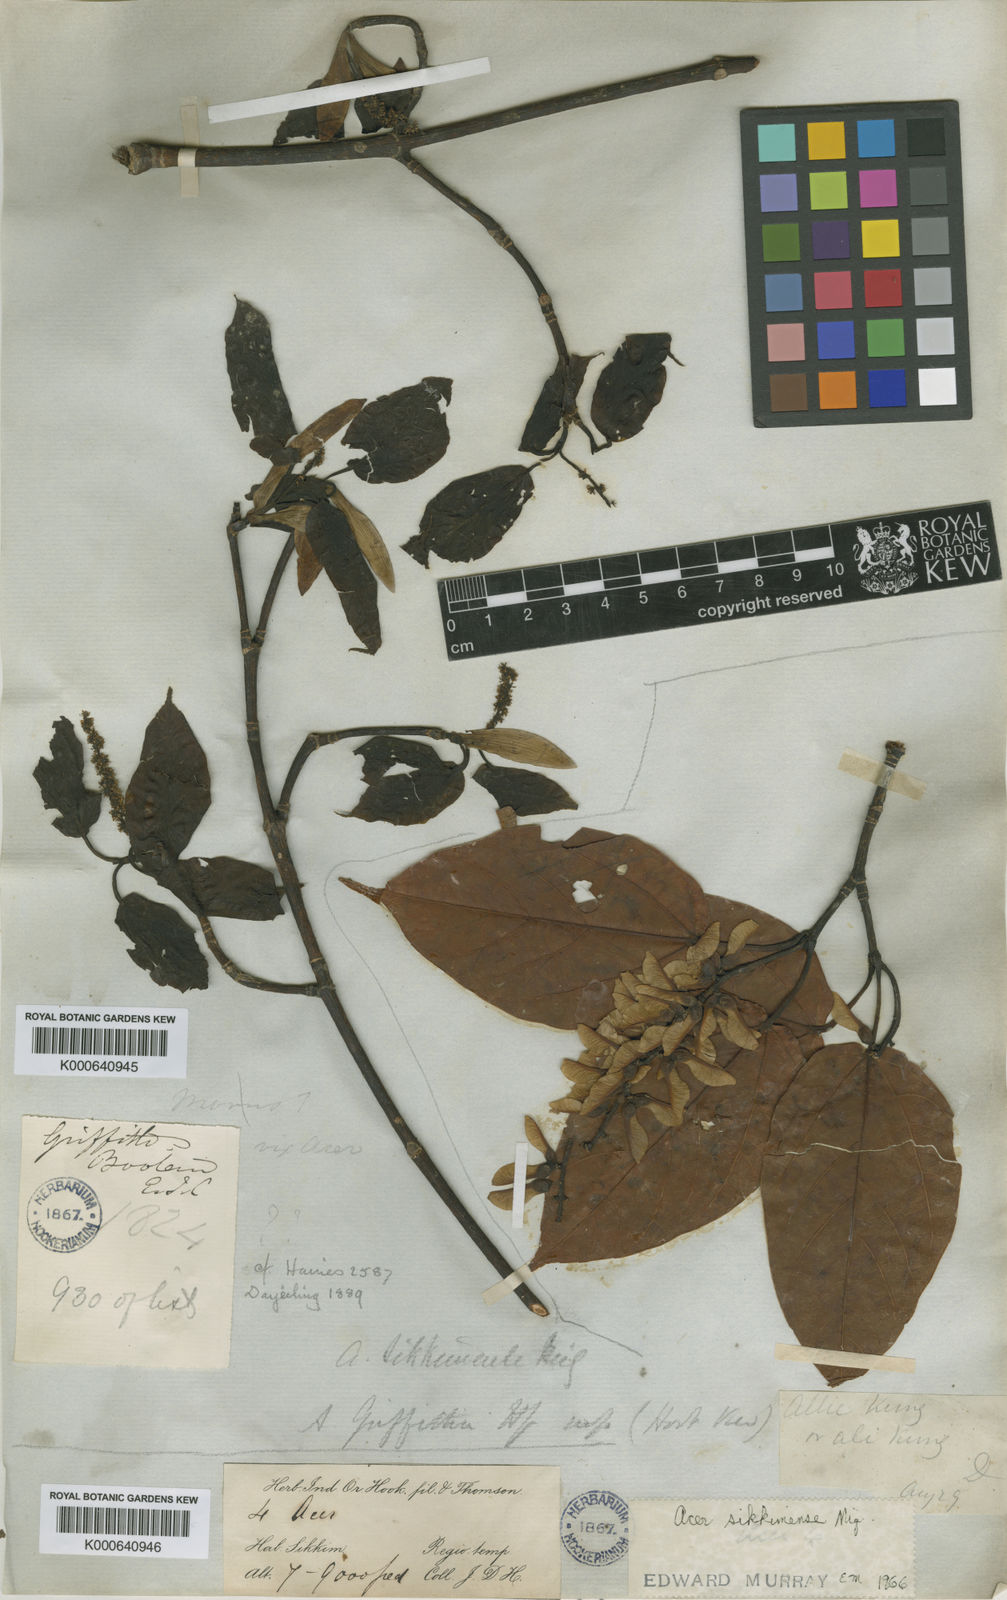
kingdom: Plantae
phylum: Tracheophyta
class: Magnoliopsida
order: Sapindales
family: Sapindaceae
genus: Acer
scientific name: Acer sikkimense
